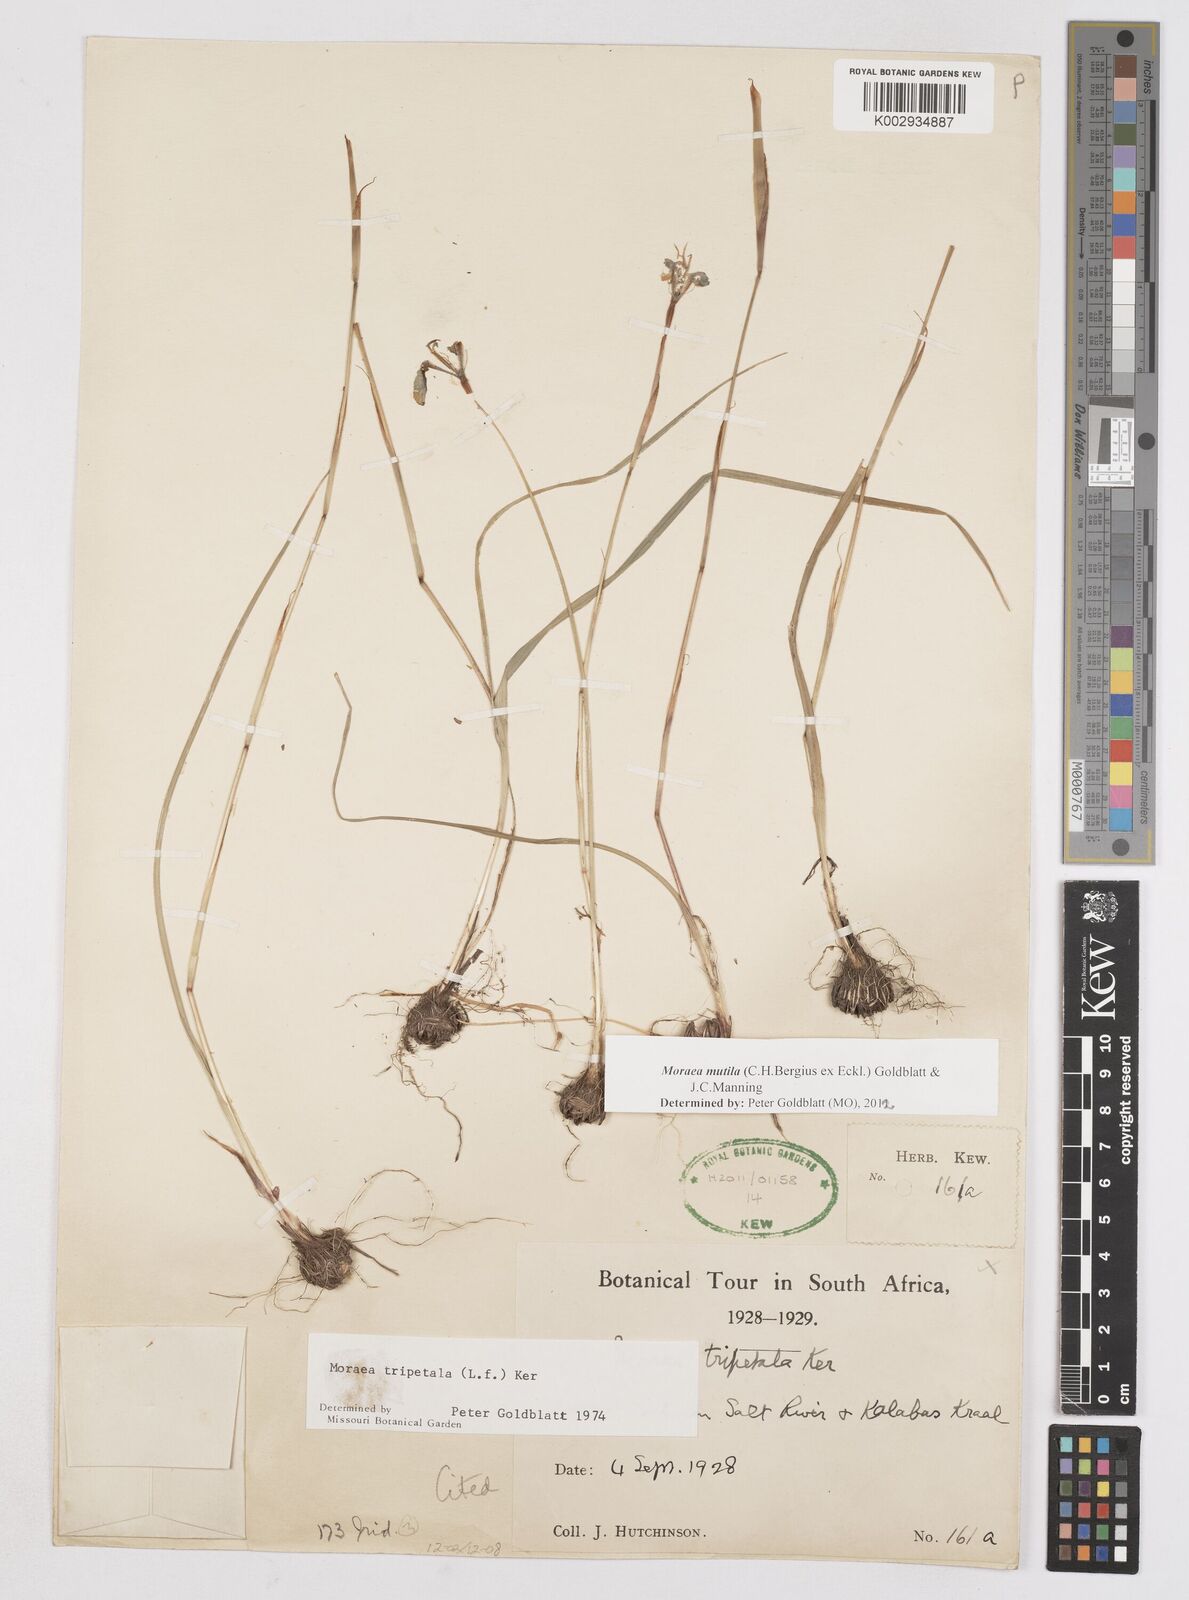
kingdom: Plantae
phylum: Tracheophyta
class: Liliopsida
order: Asparagales
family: Iridaceae
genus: Moraea
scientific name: Moraea punctata
